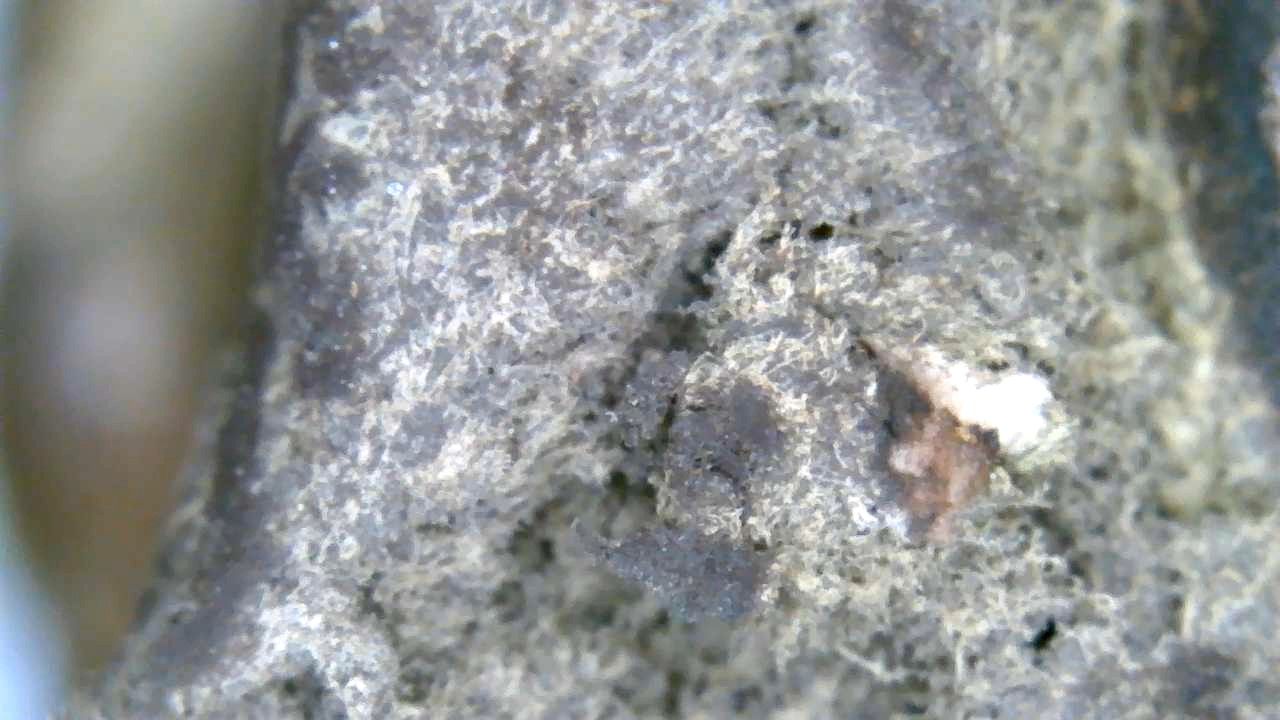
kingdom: Fungi
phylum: Basidiomycota
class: Agaricomycetes
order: Boletales
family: Sclerodermataceae
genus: Scleroderma
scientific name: Scleroderma
